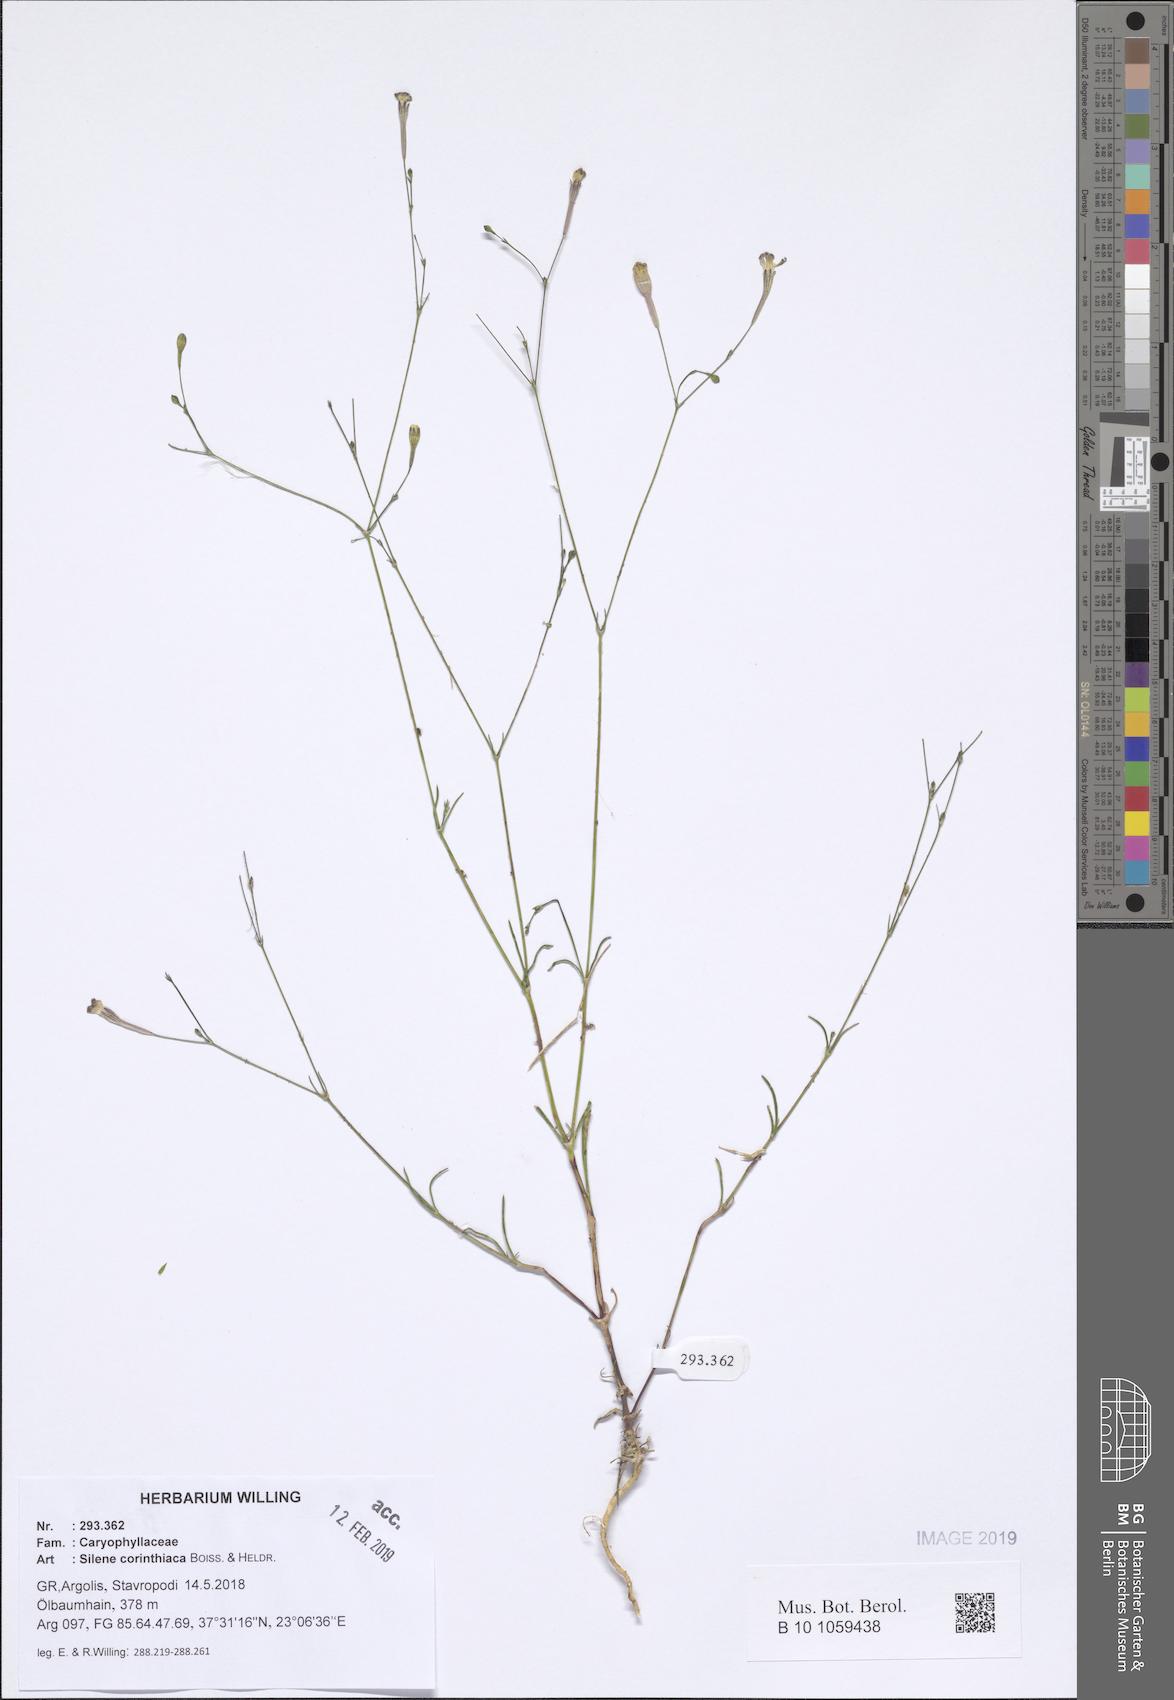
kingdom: Plantae
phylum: Tracheophyta
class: Magnoliopsida
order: Caryophyllales
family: Caryophyllaceae
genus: Silene
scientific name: Silene corinthiaca
